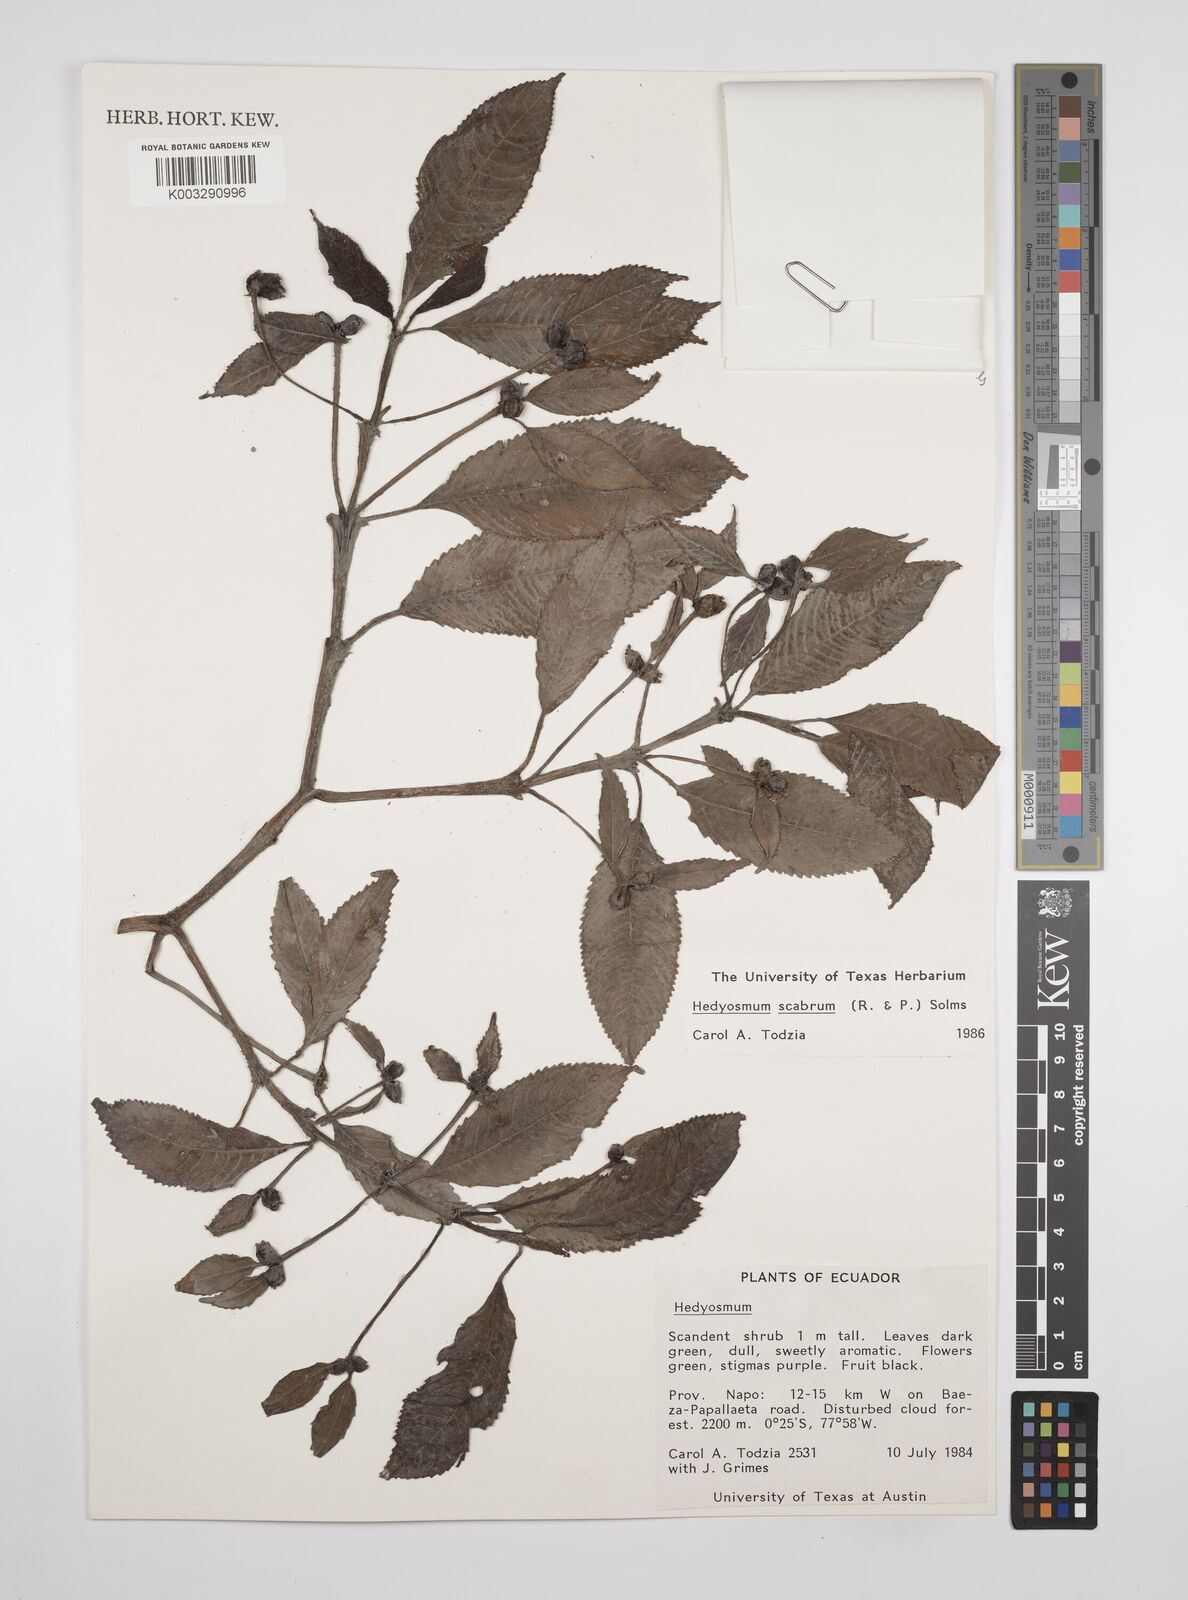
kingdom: Plantae
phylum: Tracheophyta
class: Magnoliopsida
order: Chloranthales
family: Chloranthaceae
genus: Hedyosmum
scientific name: Hedyosmum scabrum
